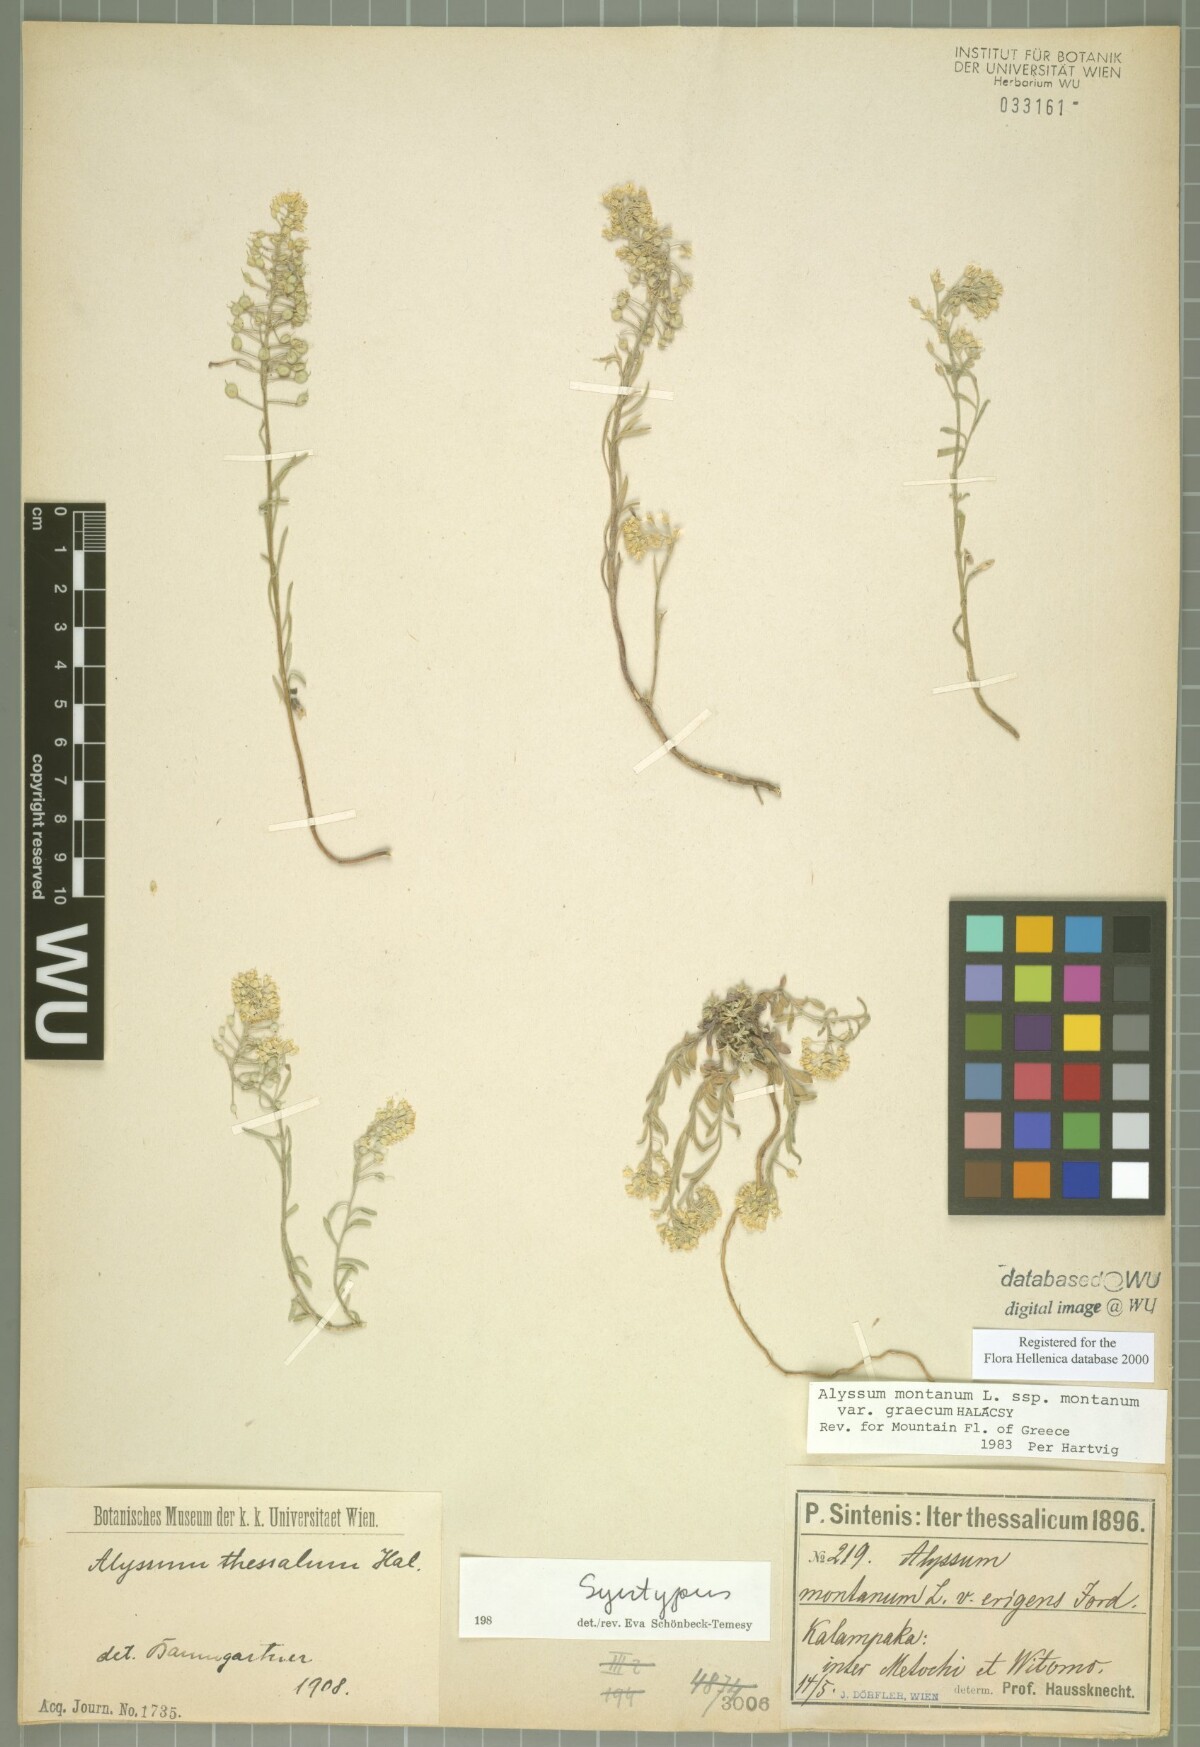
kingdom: Plantae
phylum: Tracheophyta
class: Magnoliopsida
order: Brassicales
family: Brassicaceae
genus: Alyssum
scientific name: Alyssum montanum
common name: Mountain alison
